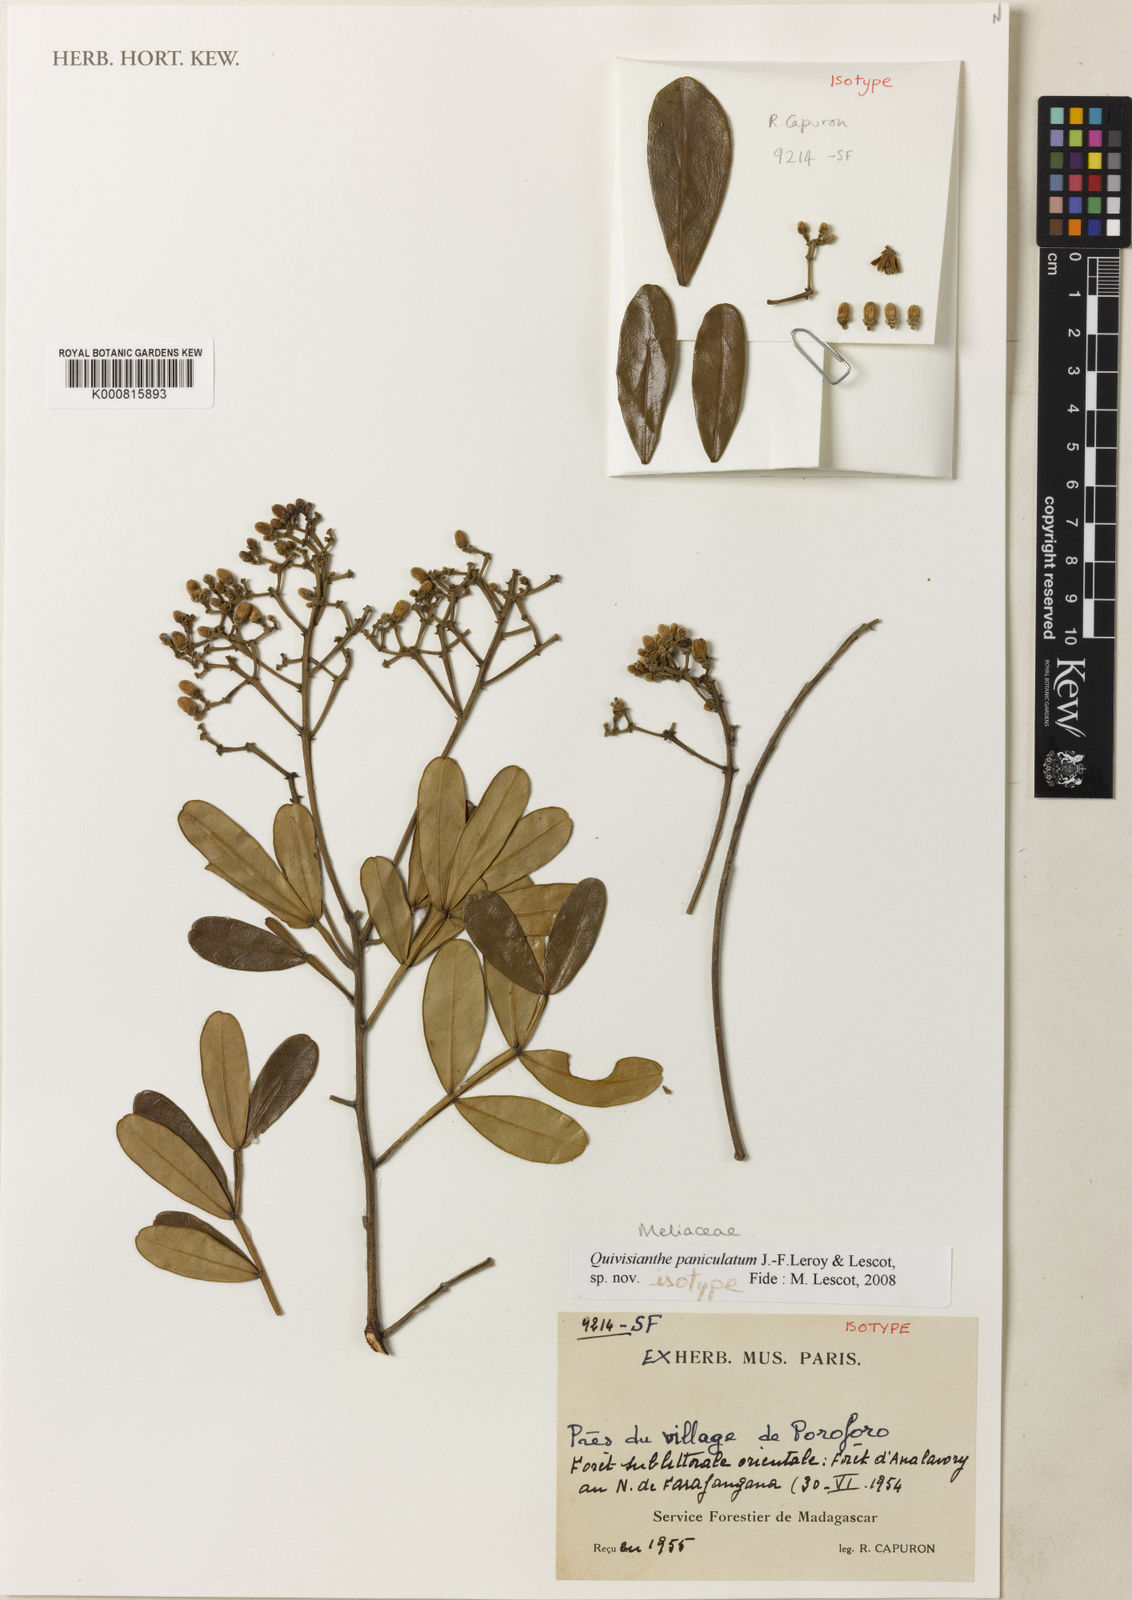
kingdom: Plantae
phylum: Tracheophyta
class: Magnoliopsida
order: Sapindales
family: Meliaceae
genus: Quivisianthe
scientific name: Quivisianthe
